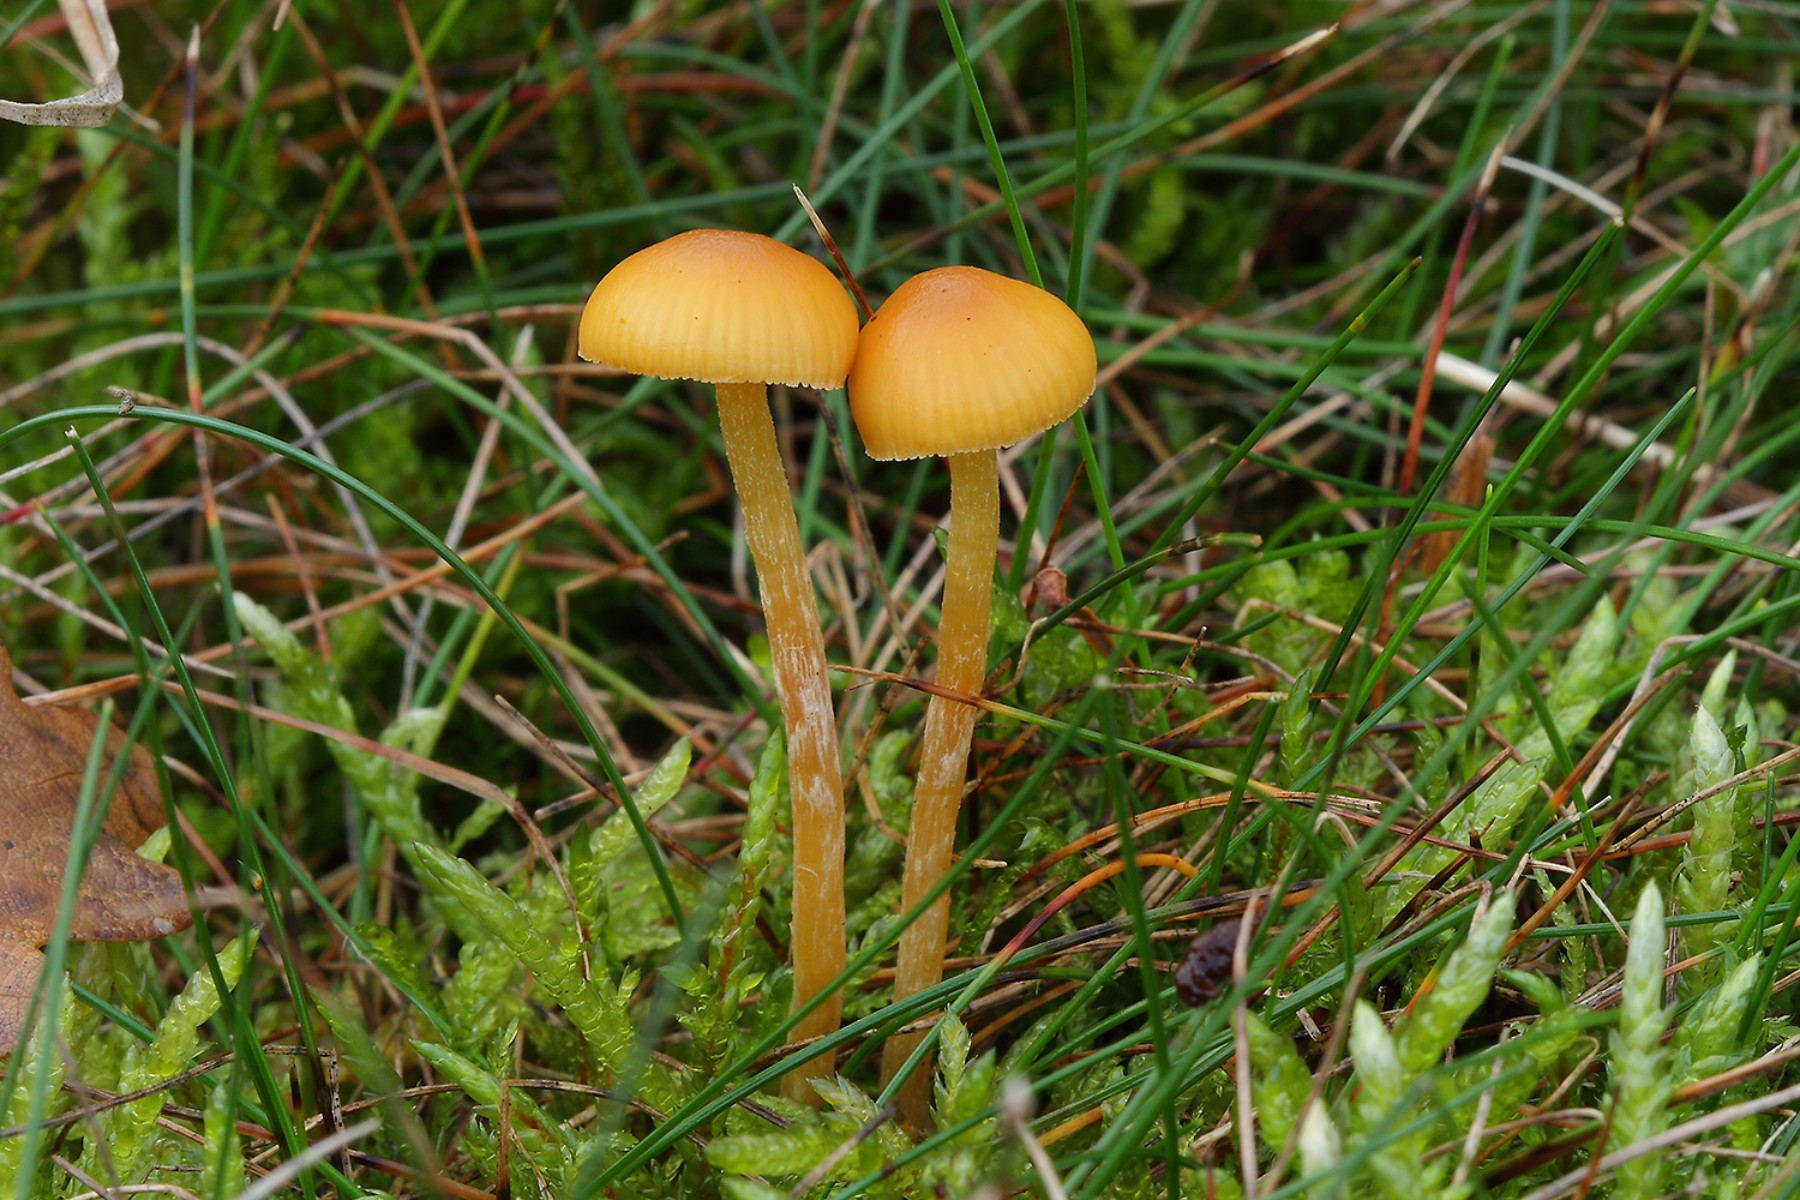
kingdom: Fungi
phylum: Basidiomycota
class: Agaricomycetes
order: Agaricales
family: Hymenogastraceae
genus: Galerina
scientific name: Galerina pumila
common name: honninggul hjelmhat
